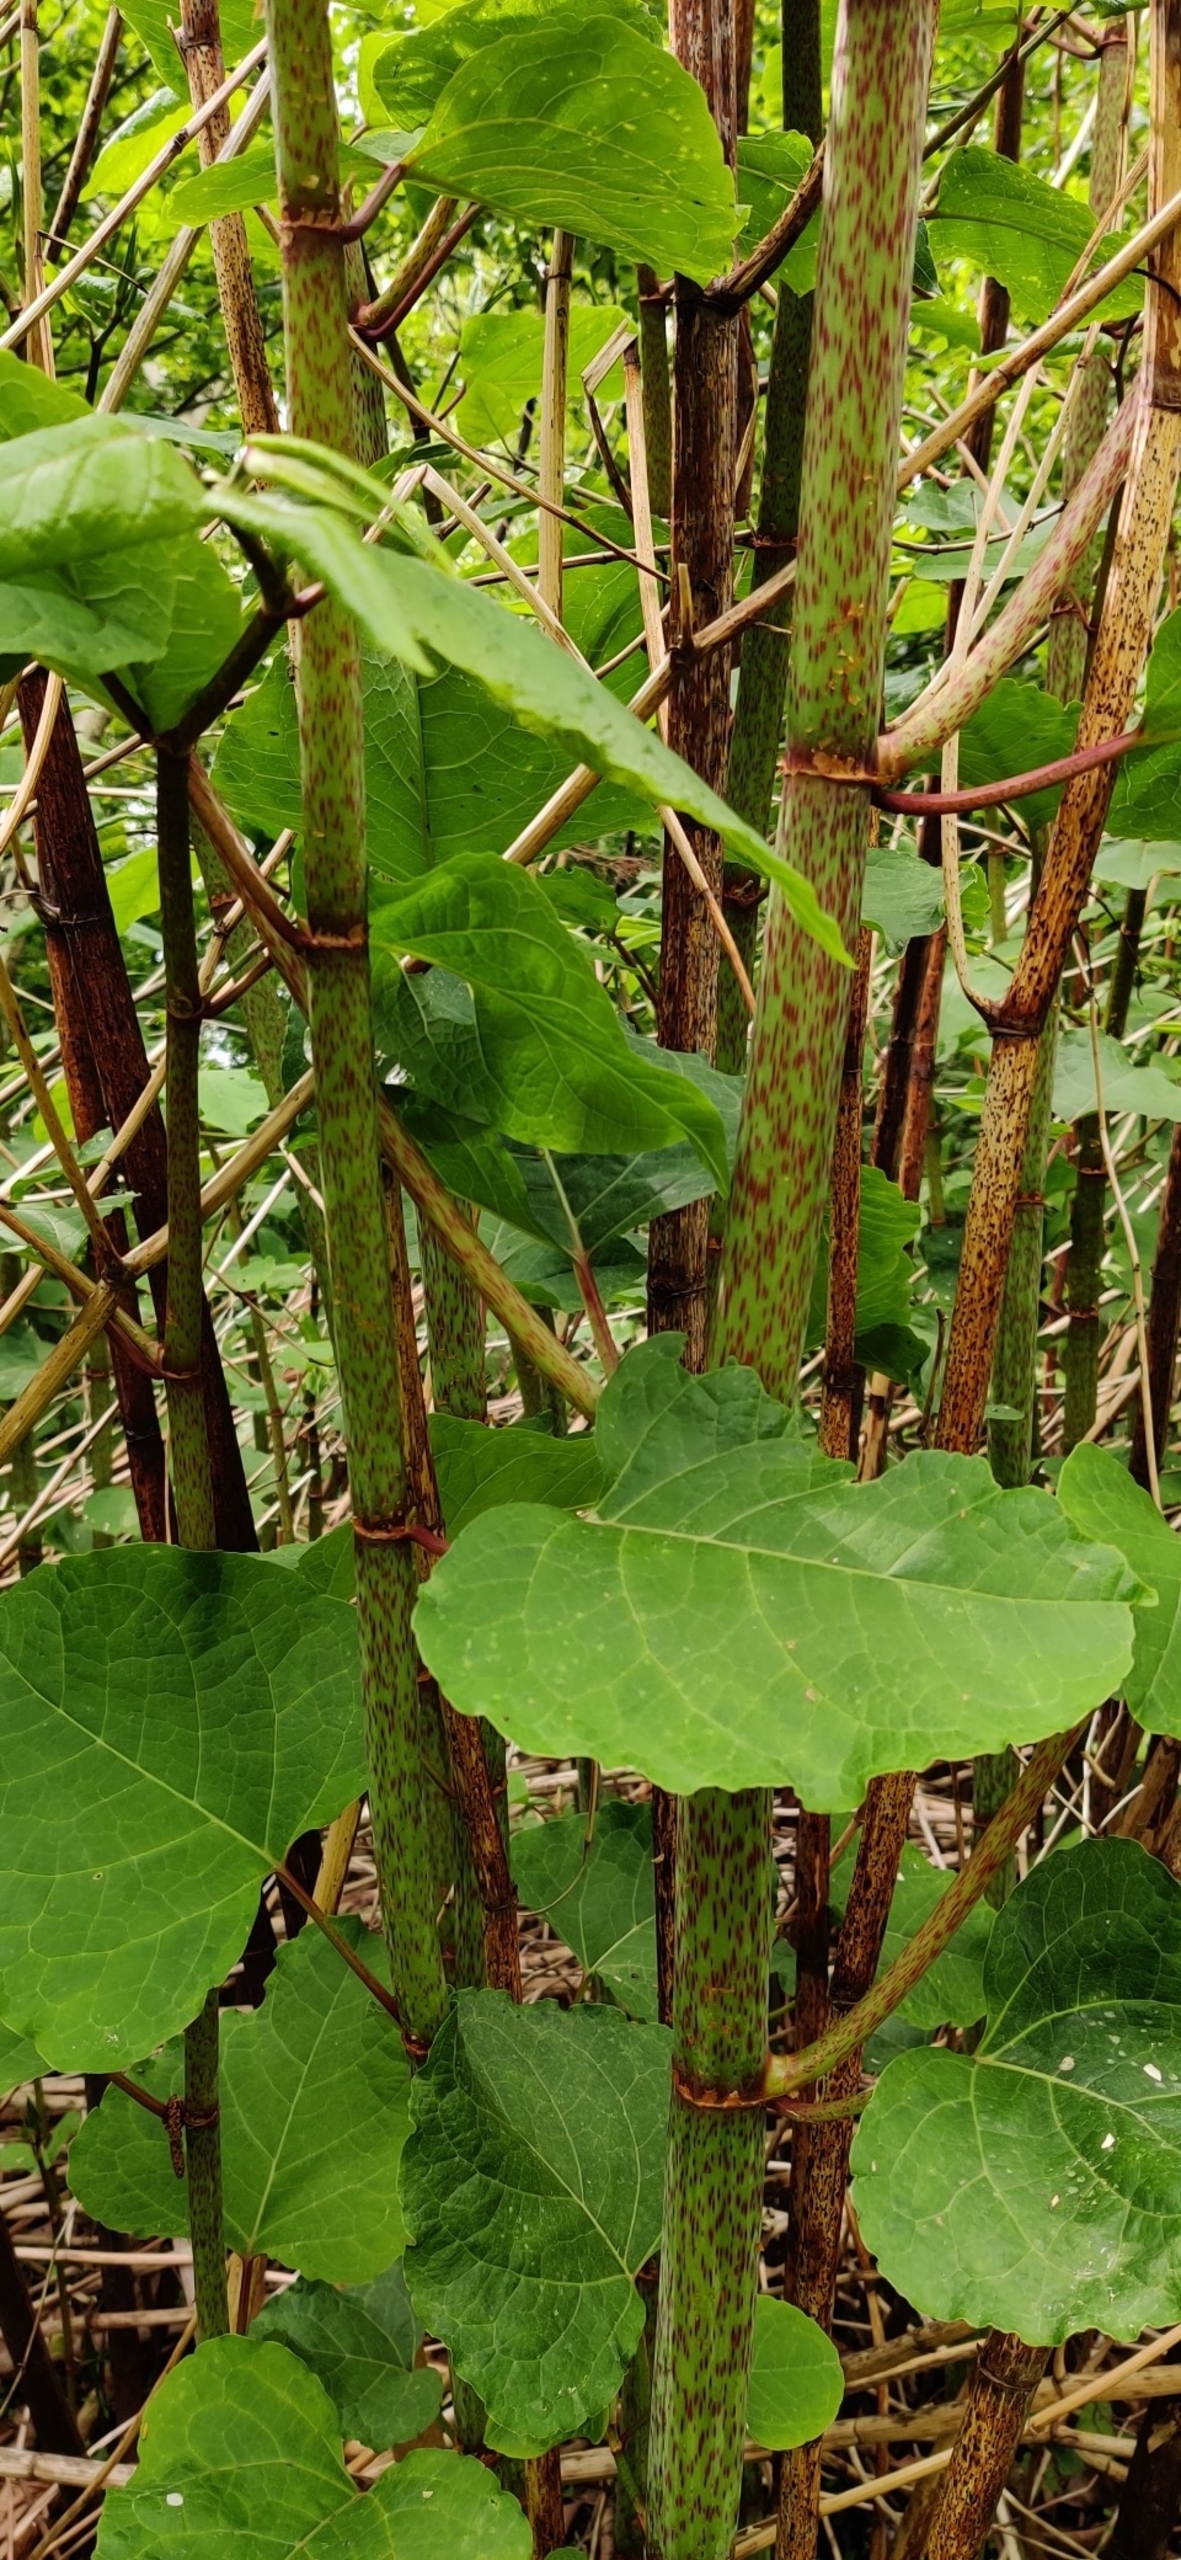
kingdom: Plantae
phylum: Tracheophyta
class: Magnoliopsida
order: Caryophyllales
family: Polygonaceae
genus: Reynoutria
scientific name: Reynoutria sachalinensis
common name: Kæmpe-pileurt
